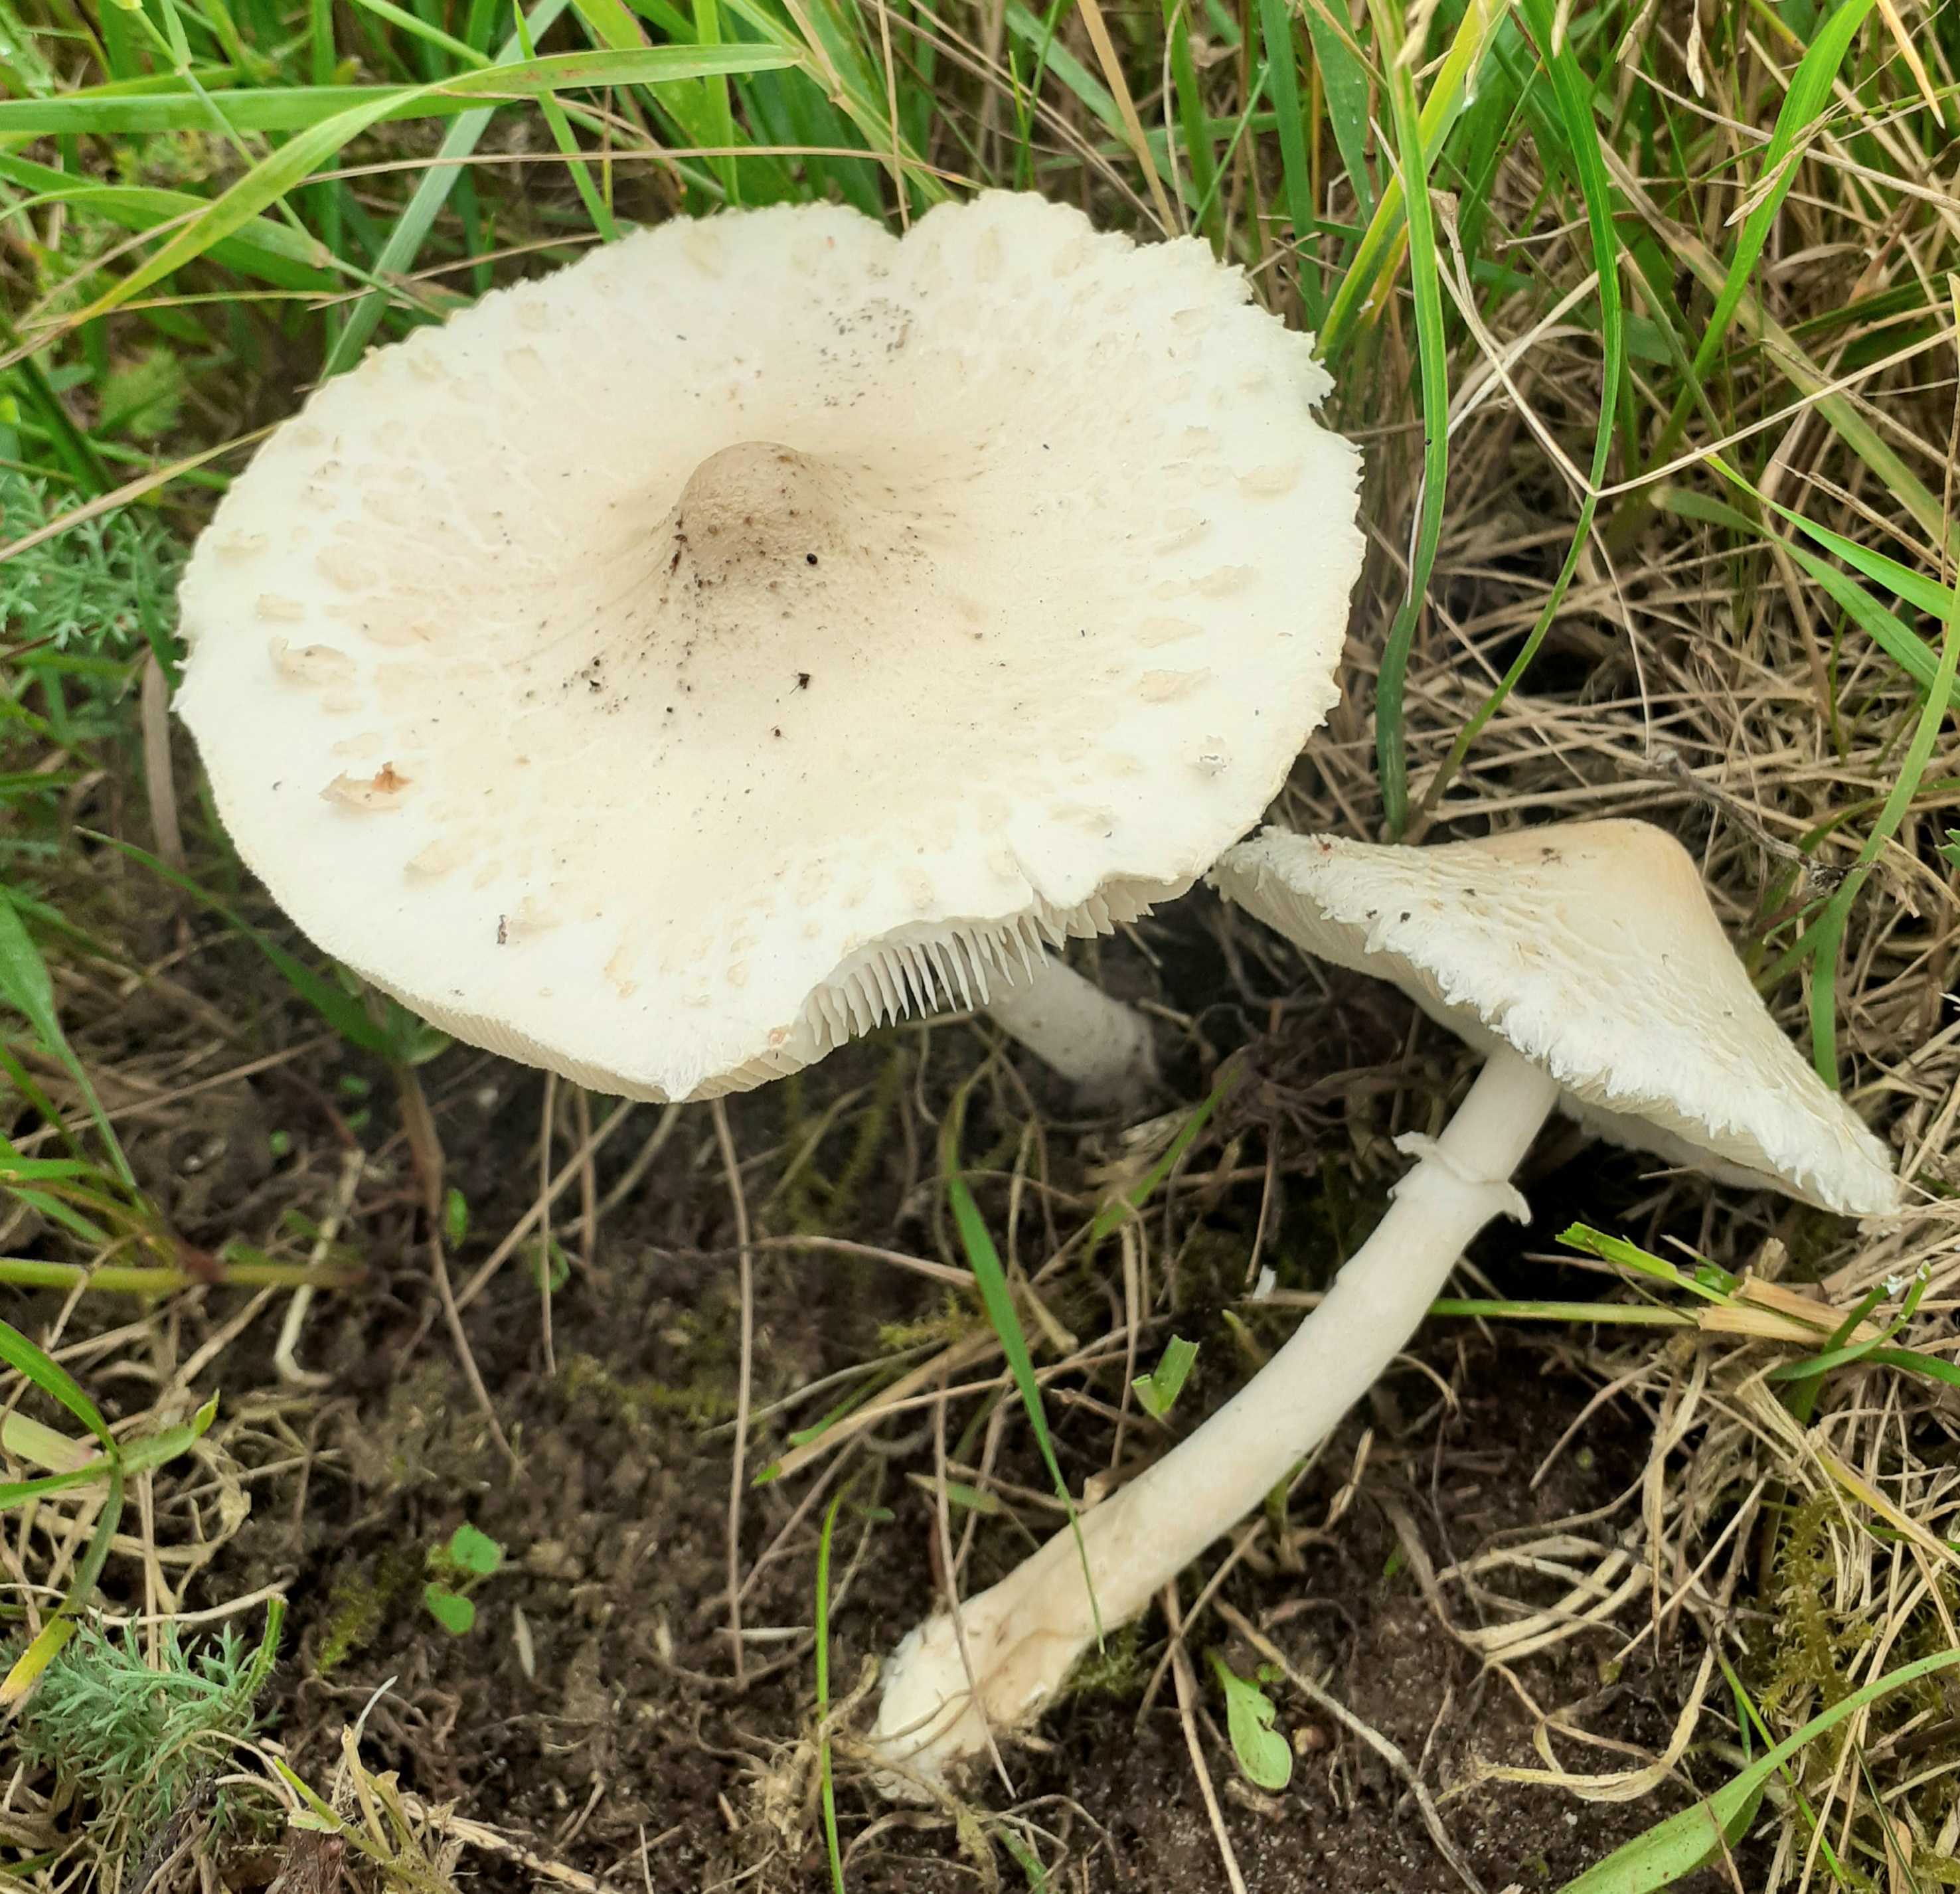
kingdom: Fungi
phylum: Basidiomycota
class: Agaricomycetes
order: Agaricales
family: Agaricaceae
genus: Macrolepiota
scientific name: Macrolepiota excoriata
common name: mark-kæmpeparasolhat
